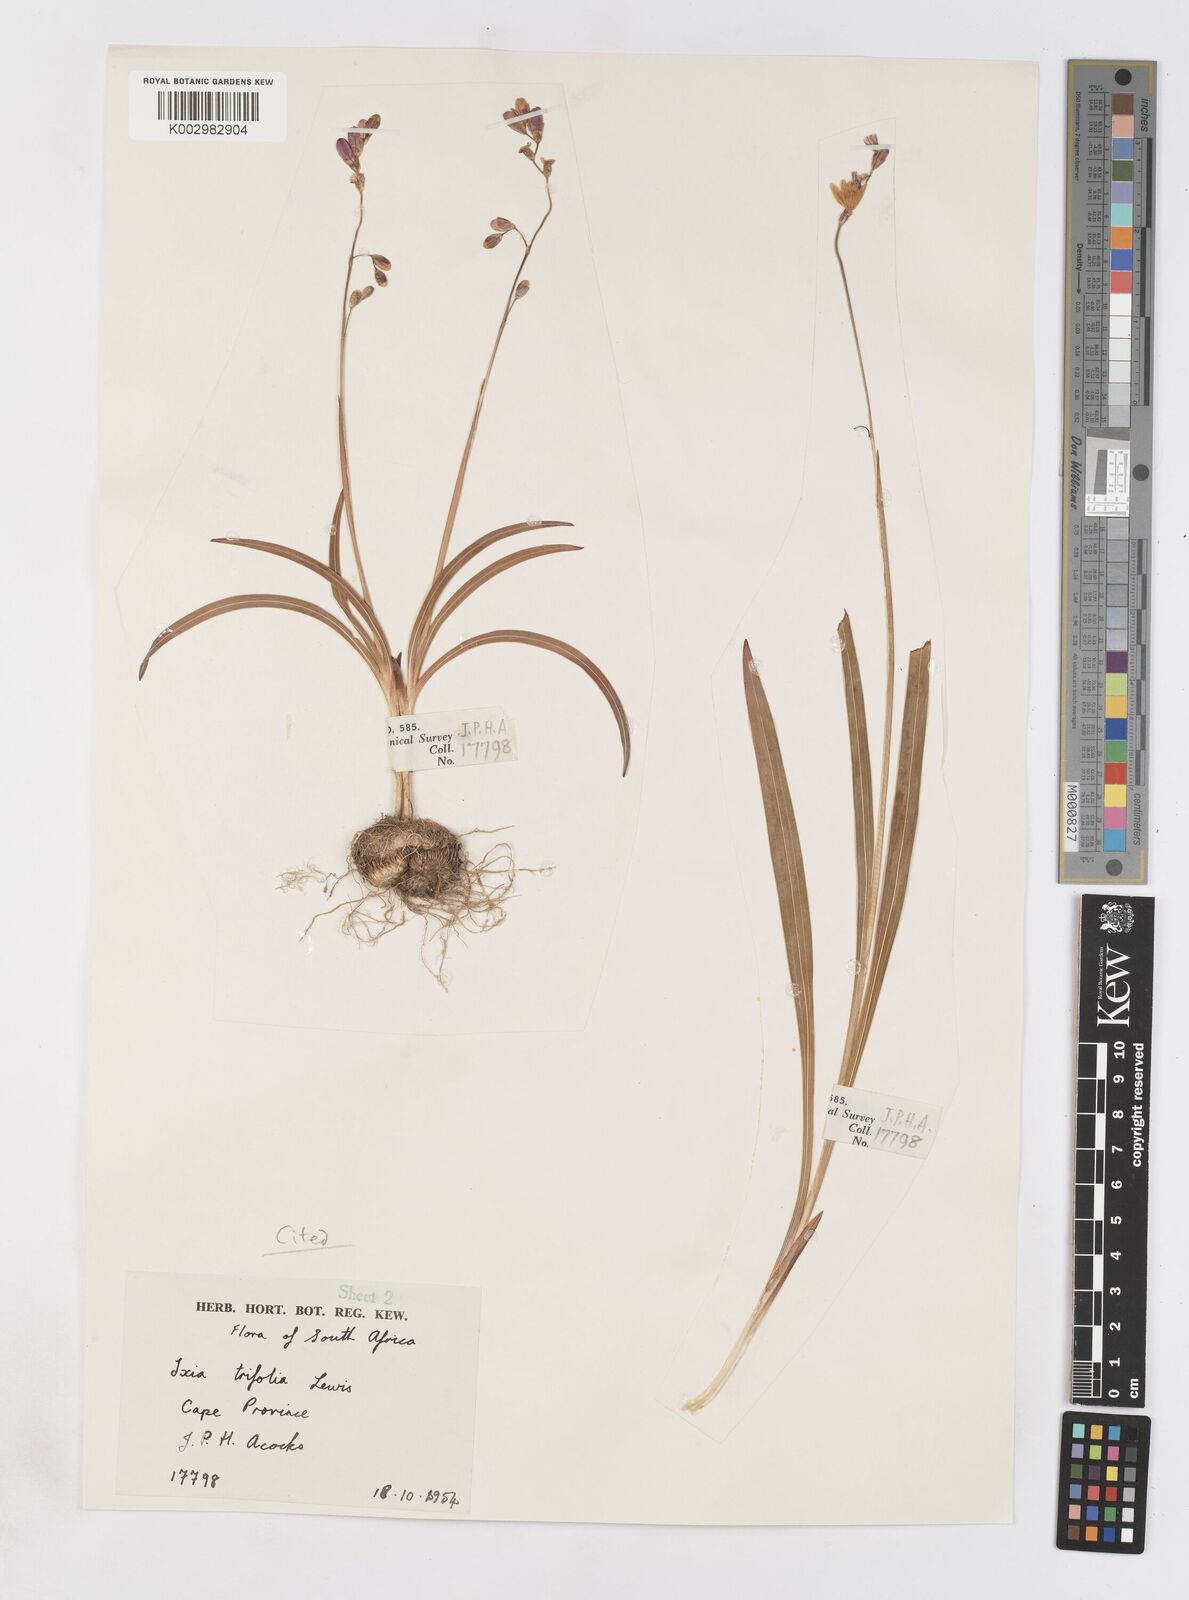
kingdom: Plantae
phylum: Tracheophyta
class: Liliopsida
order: Asparagales
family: Iridaceae
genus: Ixia
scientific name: Ixia trifolia
